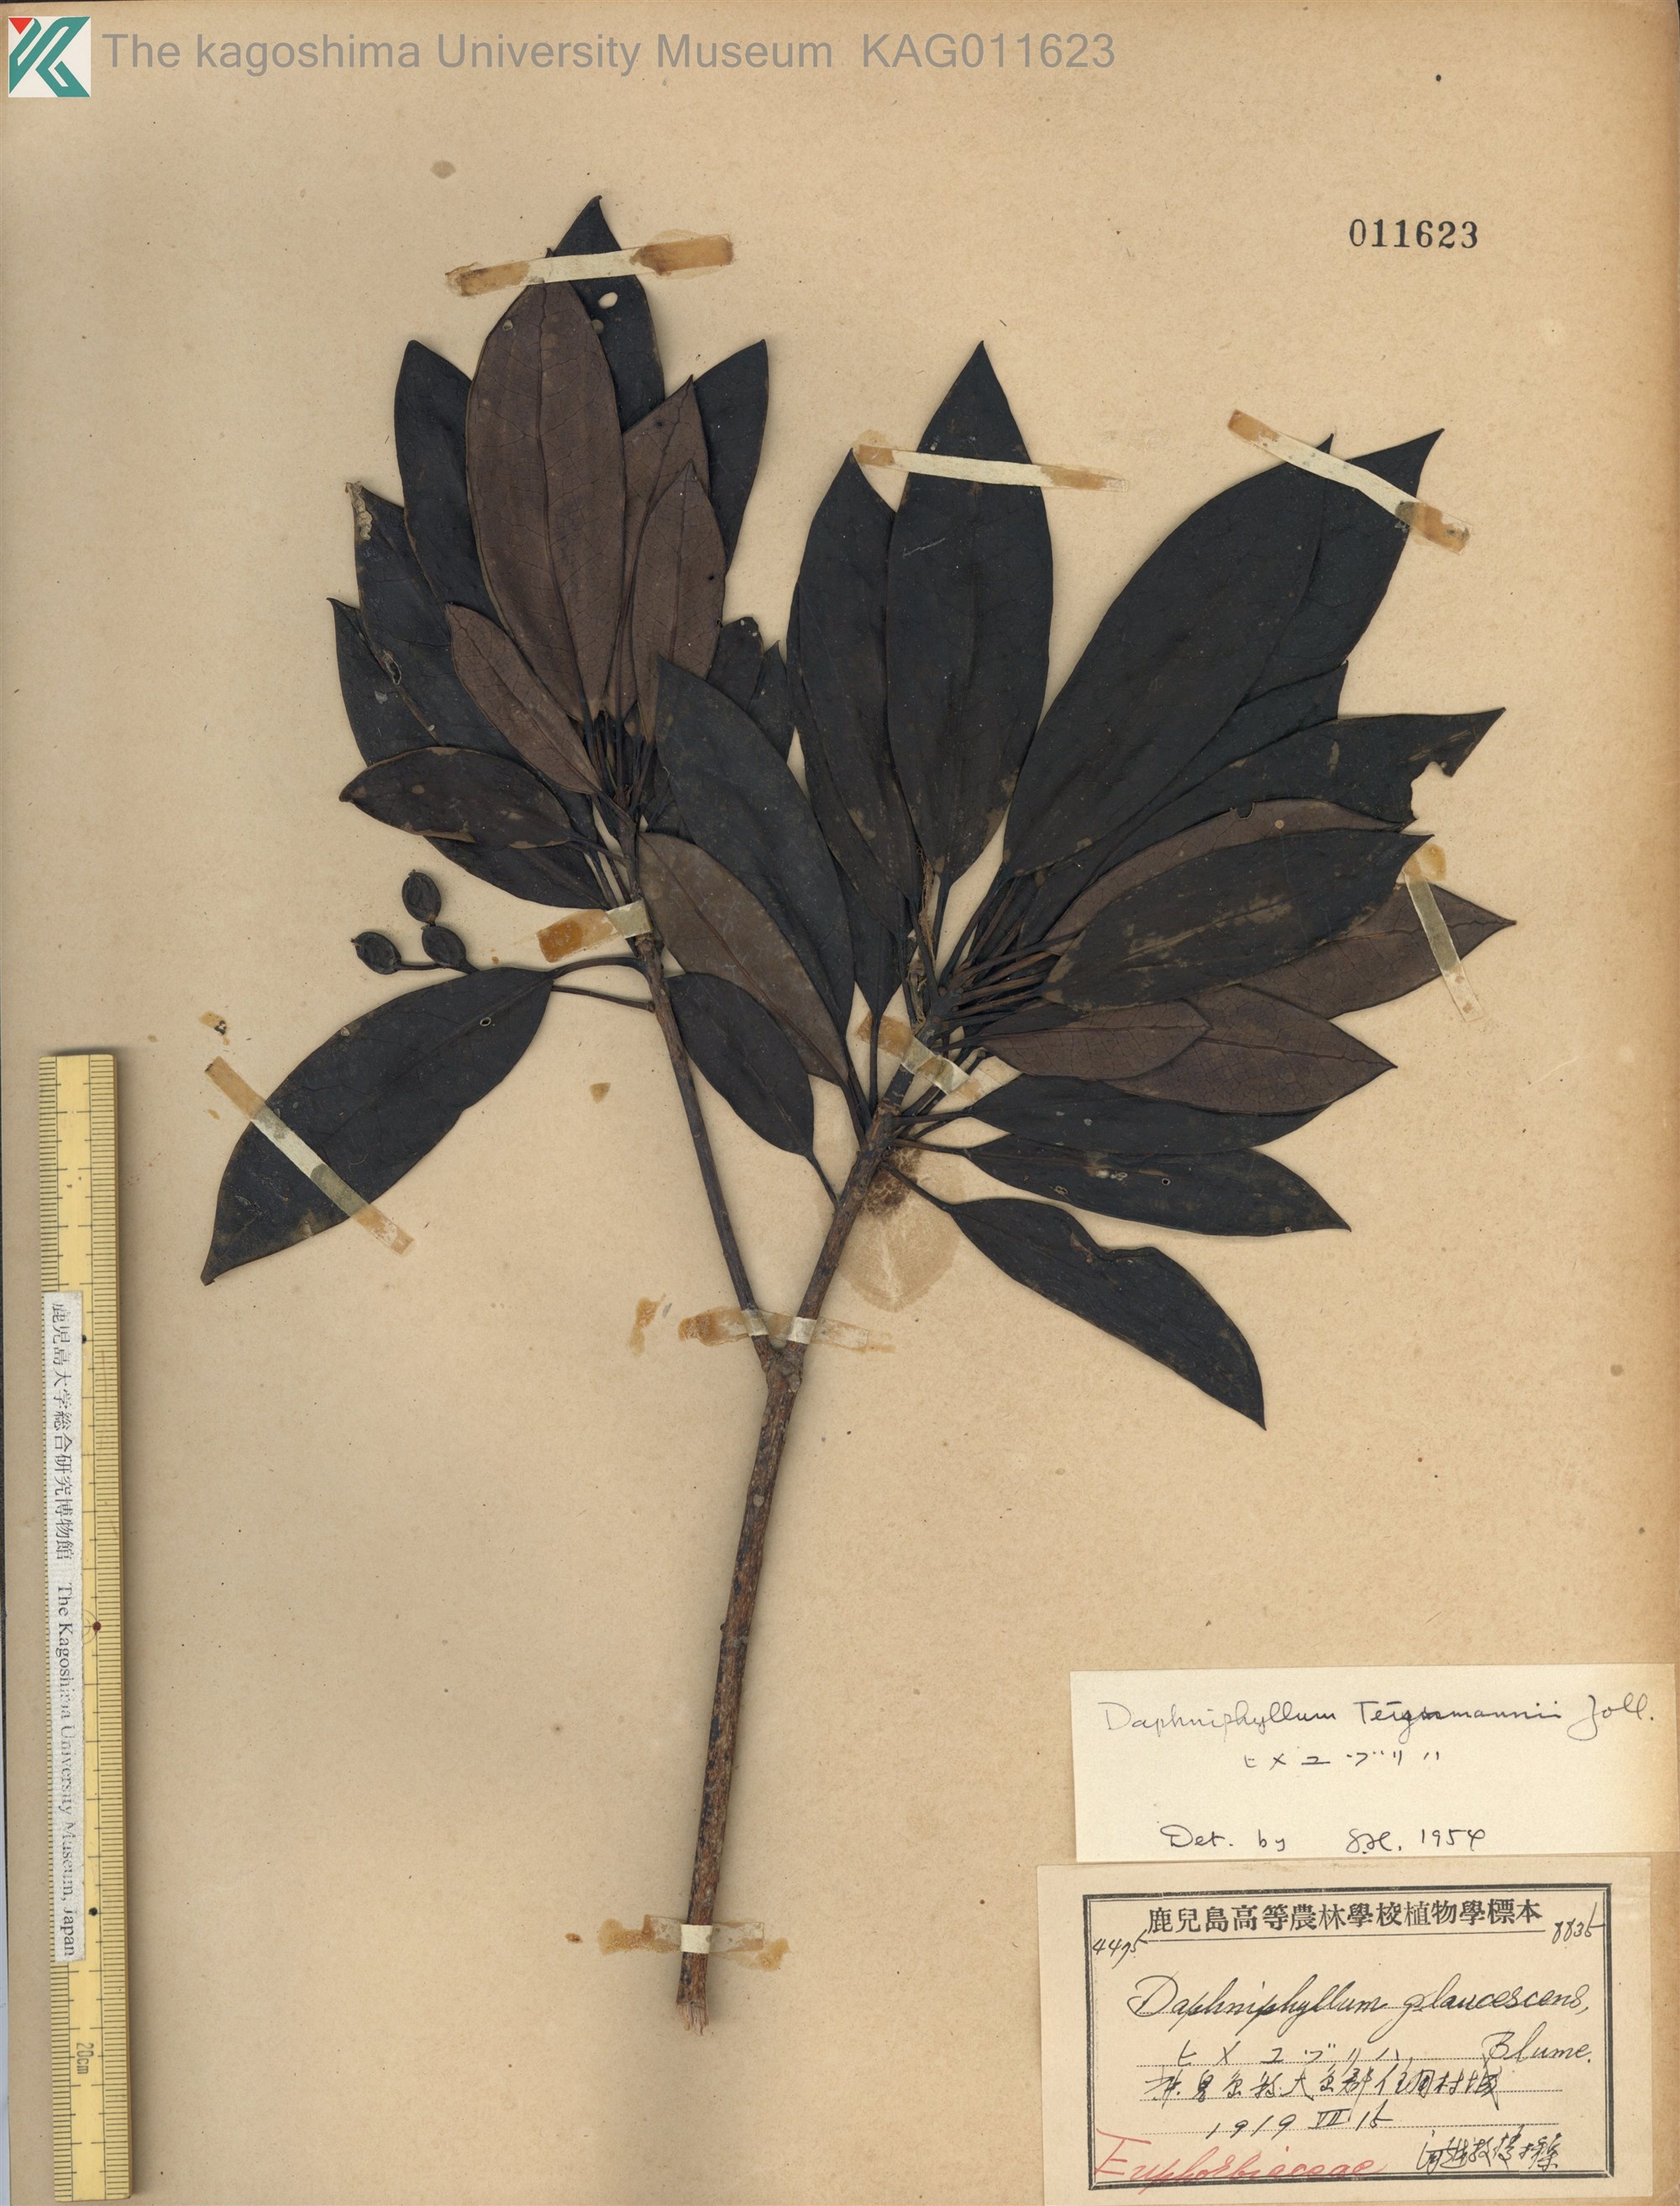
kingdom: Plantae
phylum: Tracheophyta
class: Magnoliopsida
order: Saxifragales
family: Daphniphyllaceae
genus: Daphniphyllum
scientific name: Daphniphyllum teijsmannii
